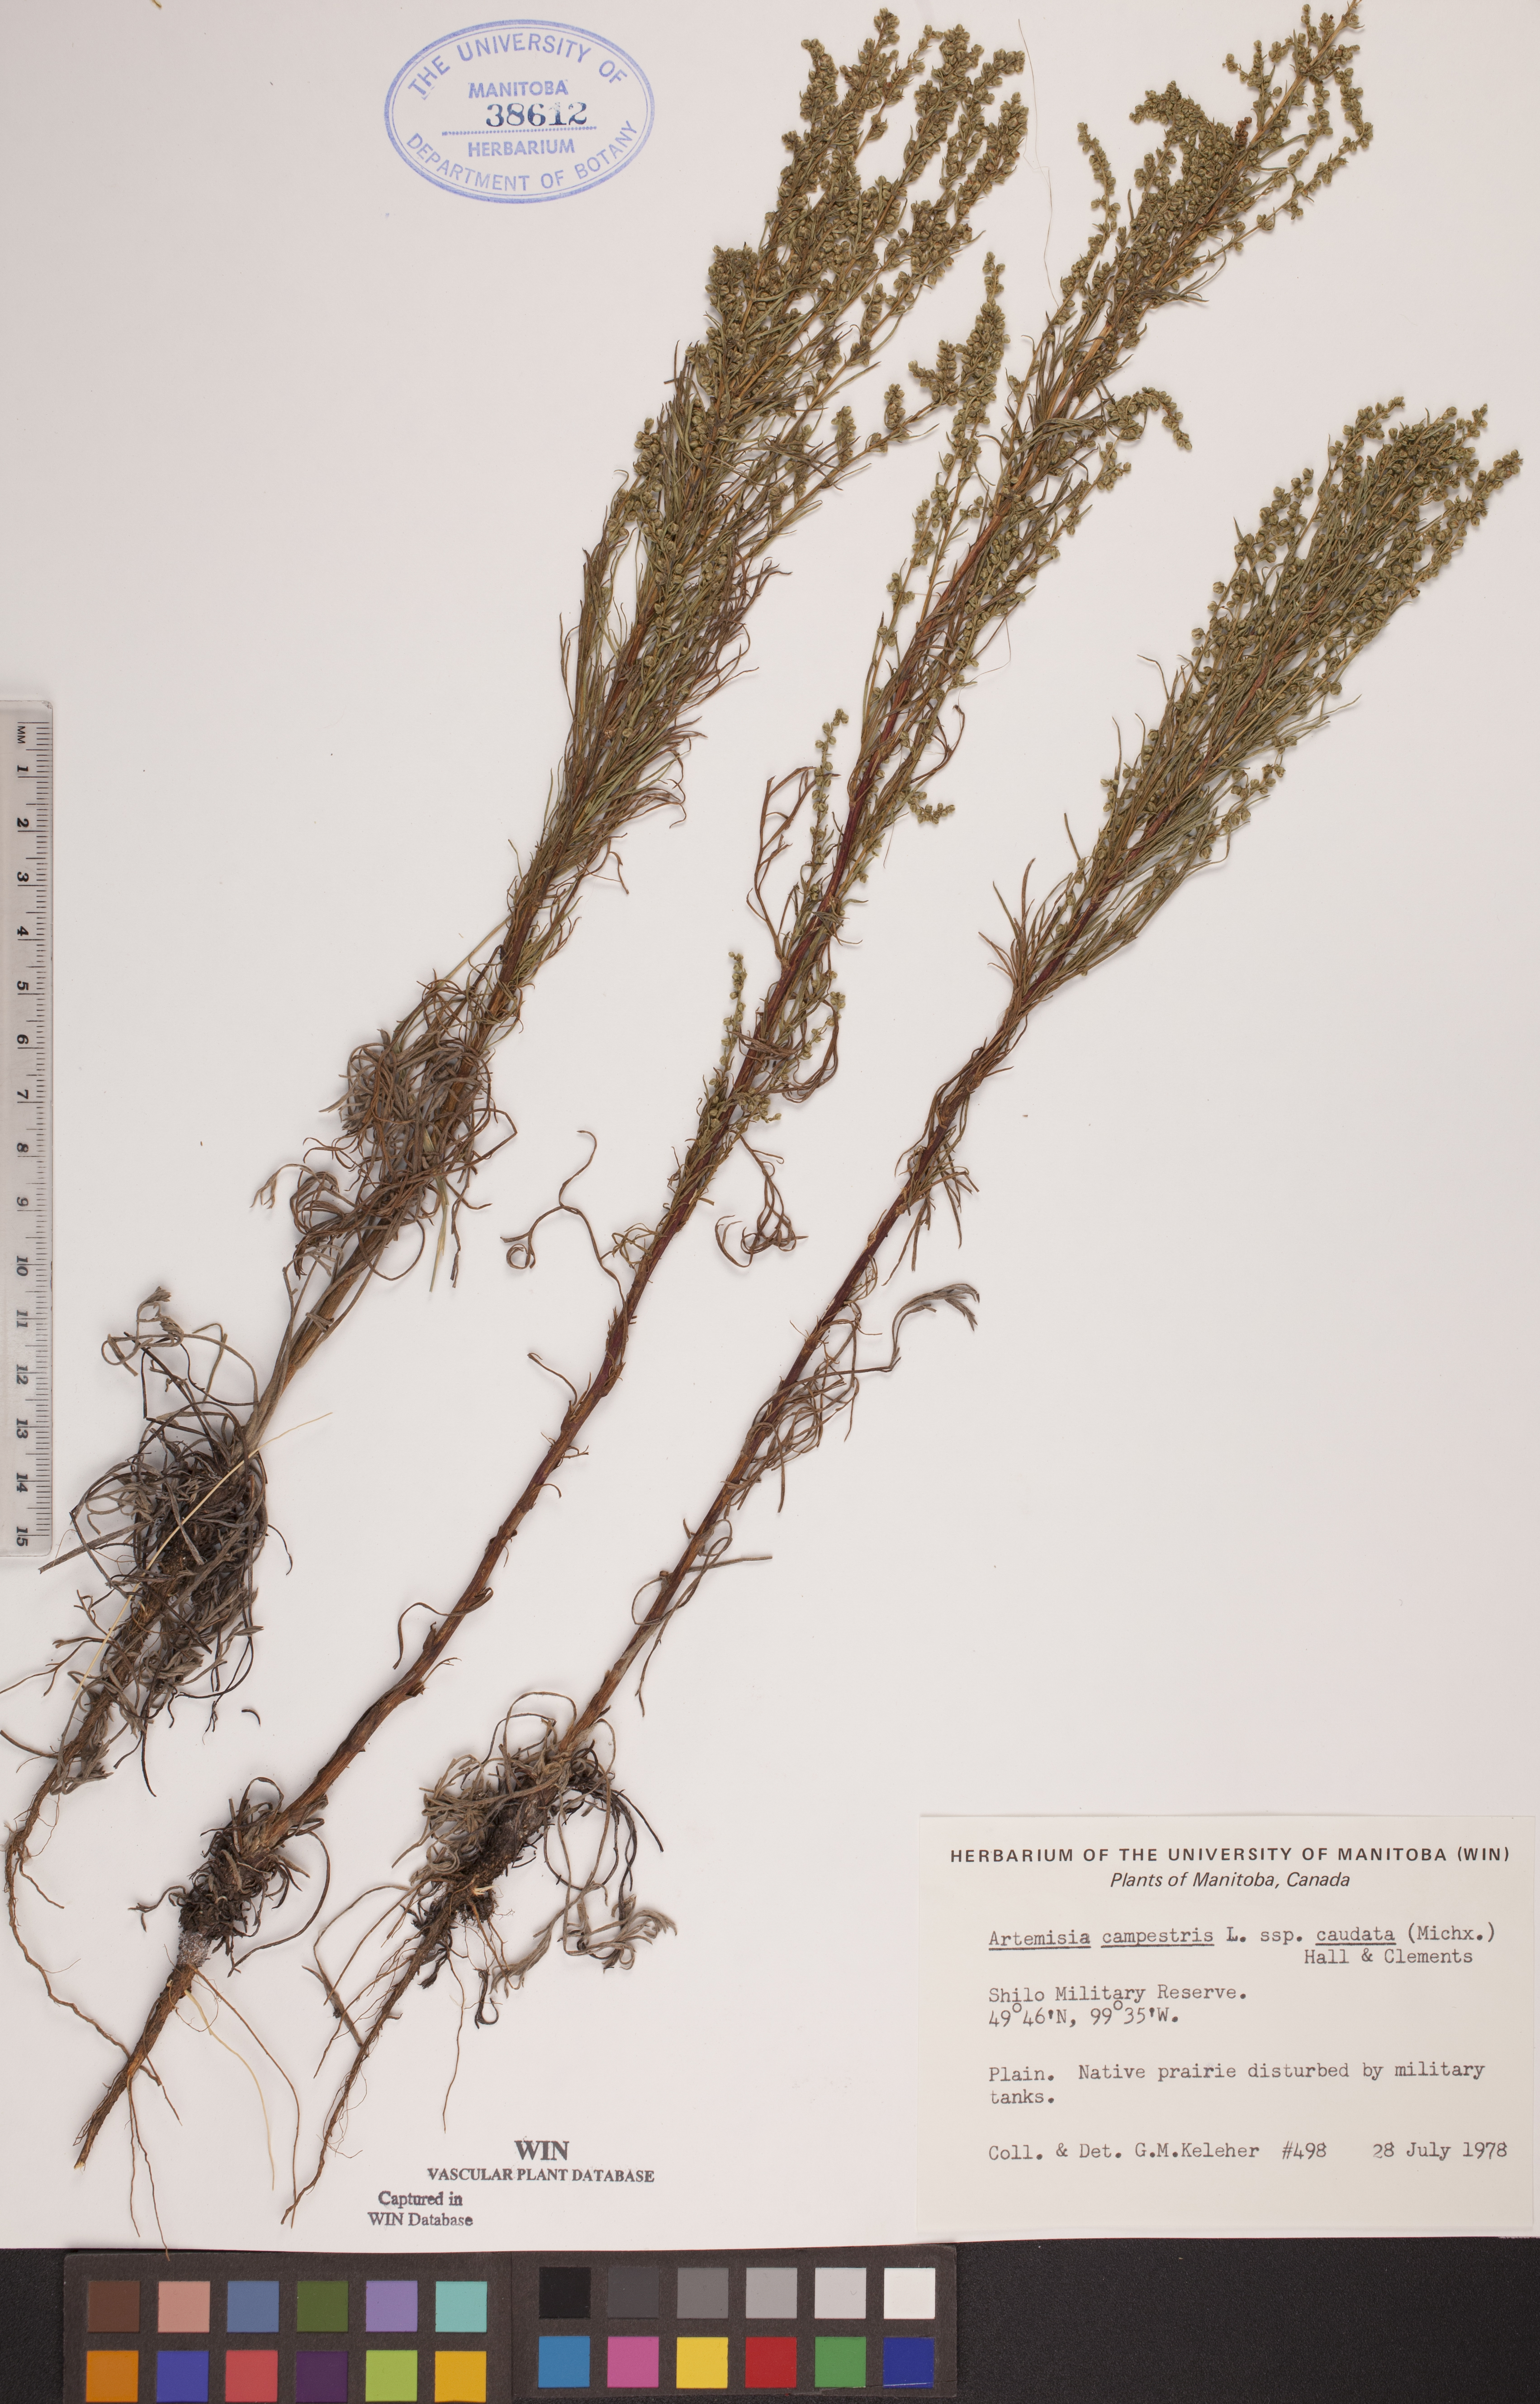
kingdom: Plantae
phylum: Tracheophyta
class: Magnoliopsida
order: Asterales
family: Asteraceae
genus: Artemisia
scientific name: Artemisia campestris
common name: Field wormwood
